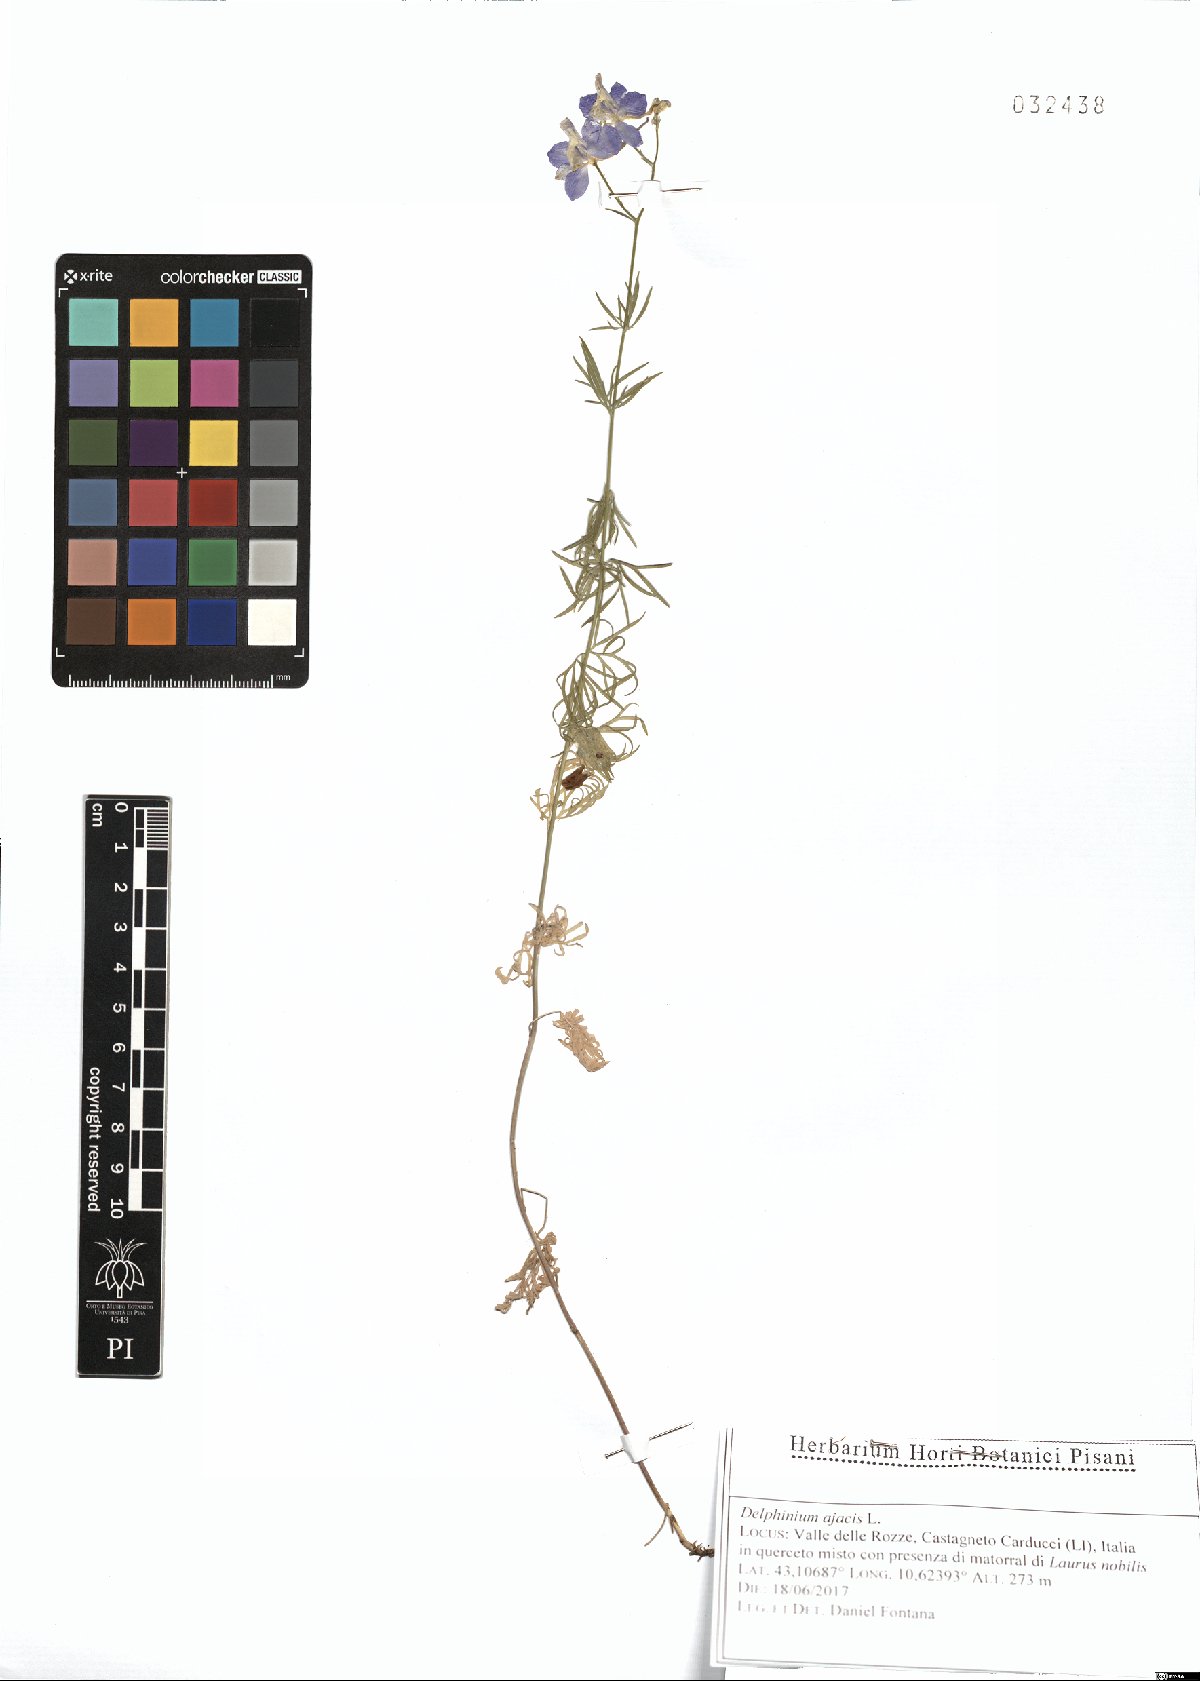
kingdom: Plantae
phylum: Tracheophyta
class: Magnoliopsida
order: Ranunculales
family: Ranunculaceae
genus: Delphinium
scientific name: Delphinium ajacis
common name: Doubtful knight's-spur
